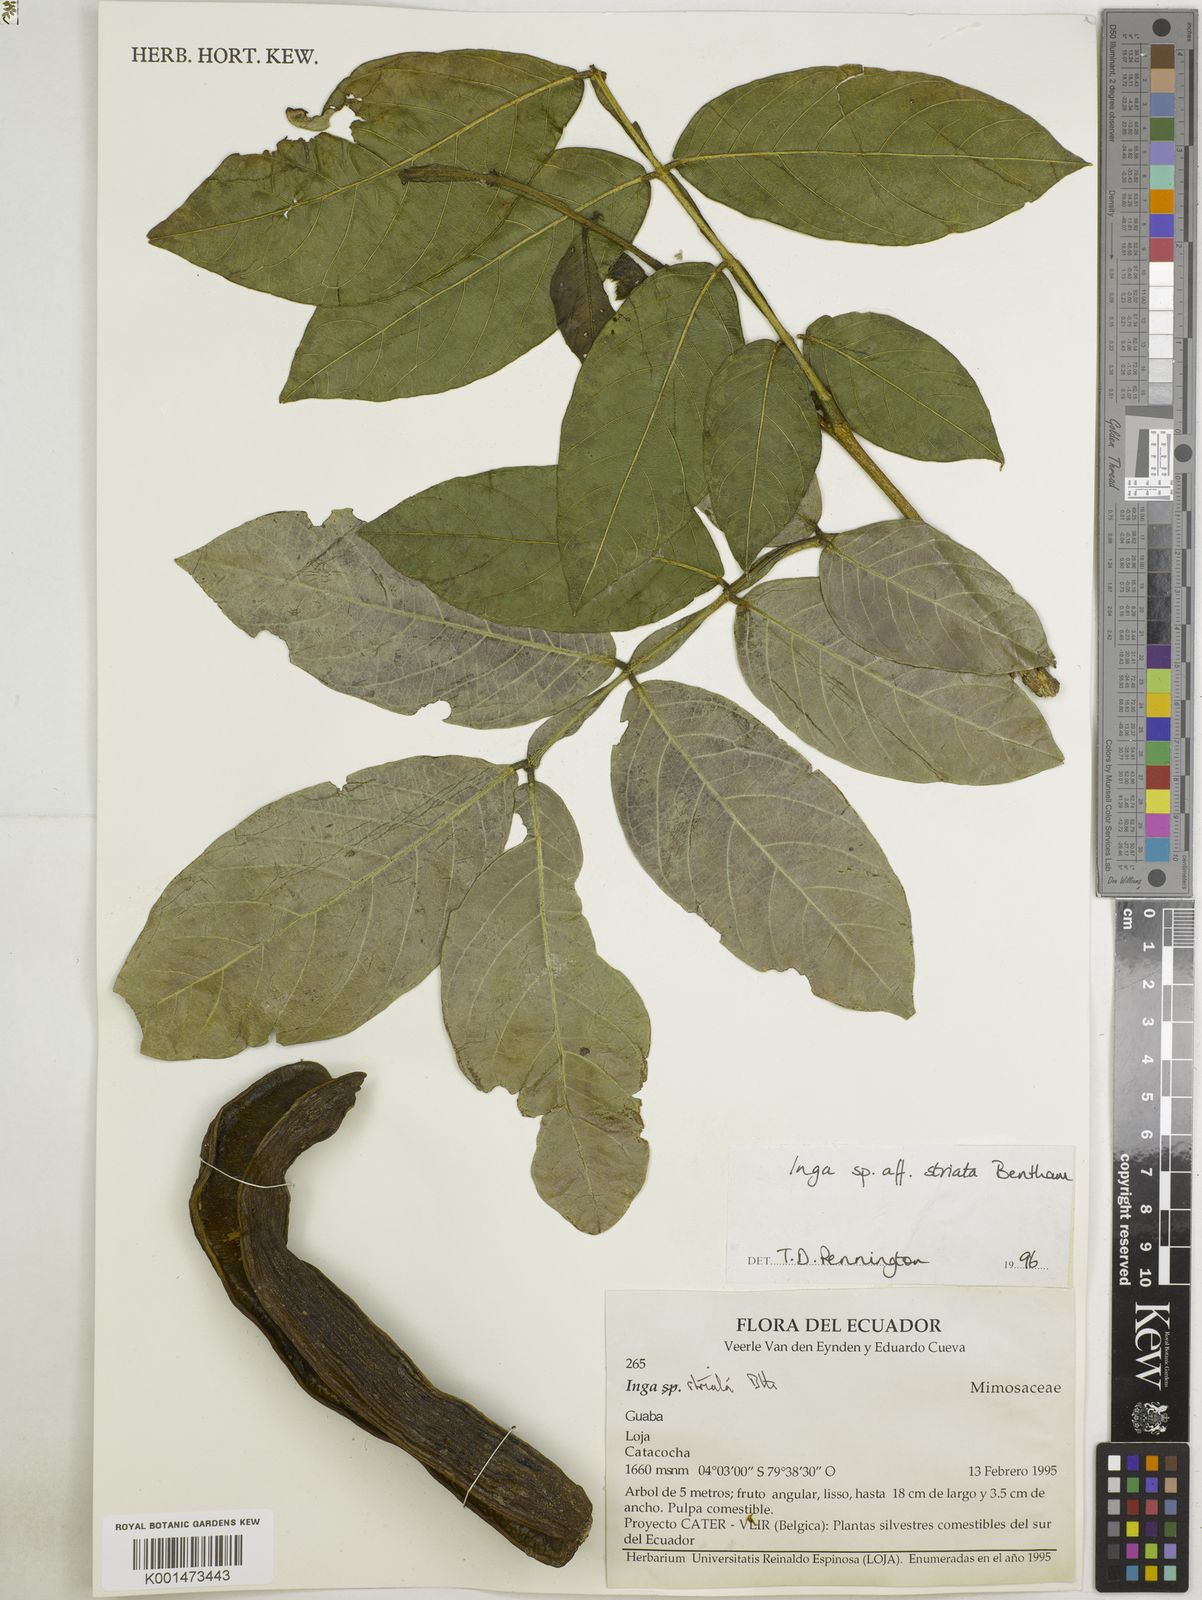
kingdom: Plantae
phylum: Tracheophyta
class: Magnoliopsida
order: Fabales
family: Fabaceae
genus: Inga
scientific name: Inga striata
